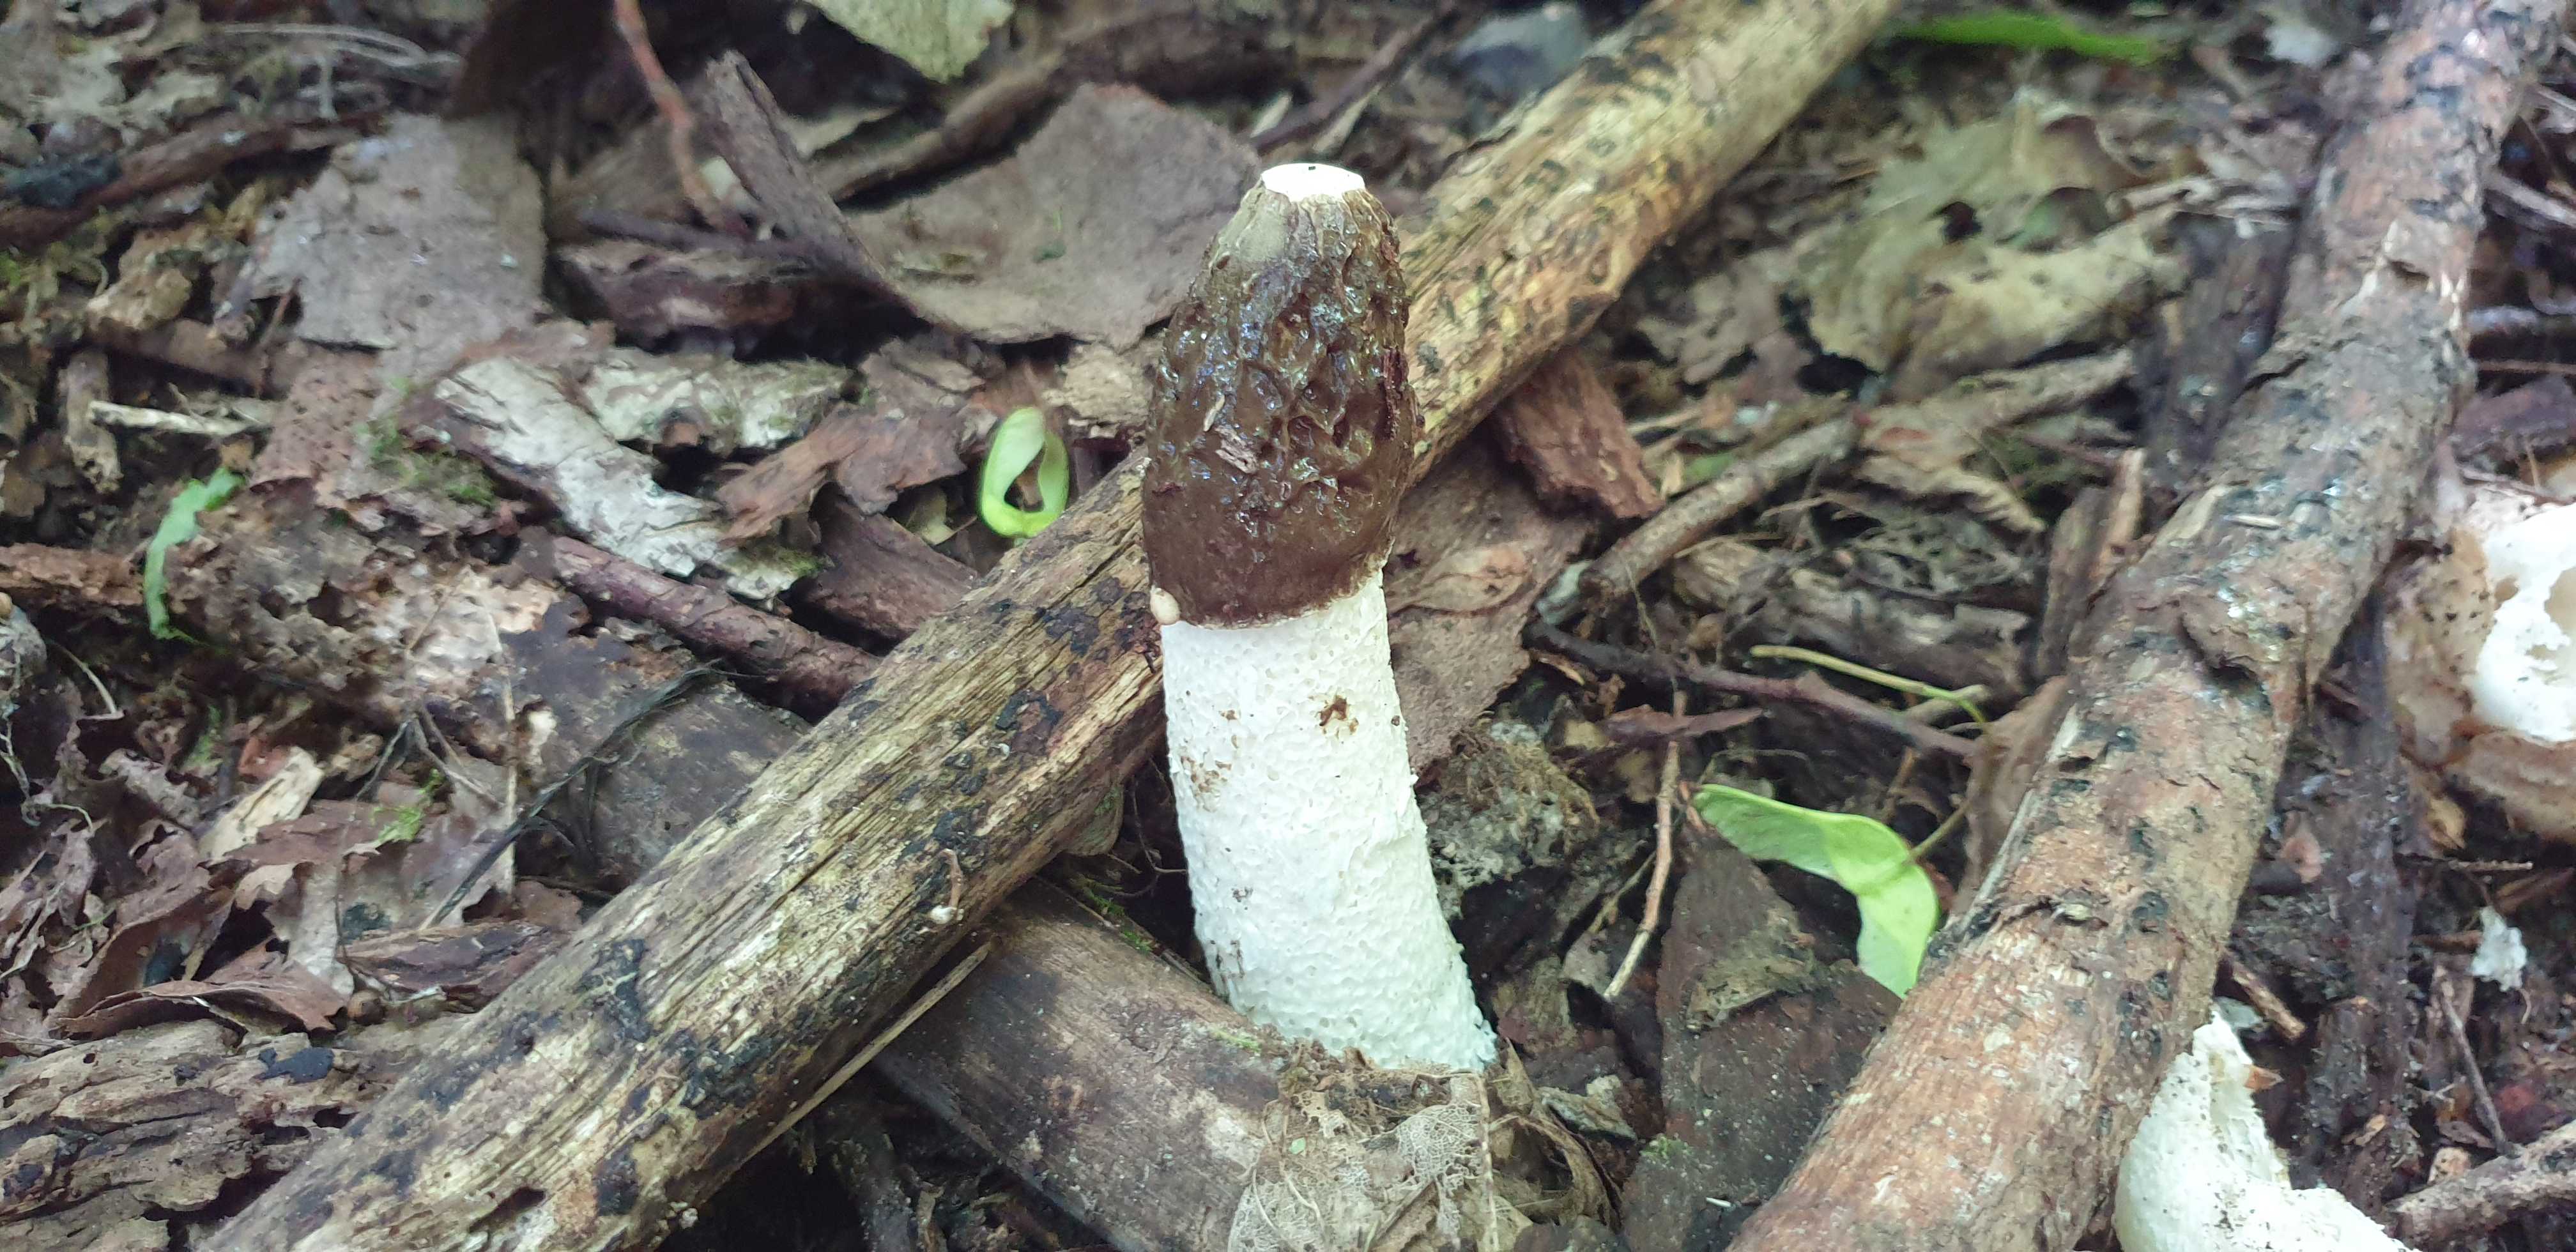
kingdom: Fungi
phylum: Basidiomycota
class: Agaricomycetes
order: Phallales
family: Phallaceae
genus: Phallus
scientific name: Phallus impudicus
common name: almindelig stinksvamp
